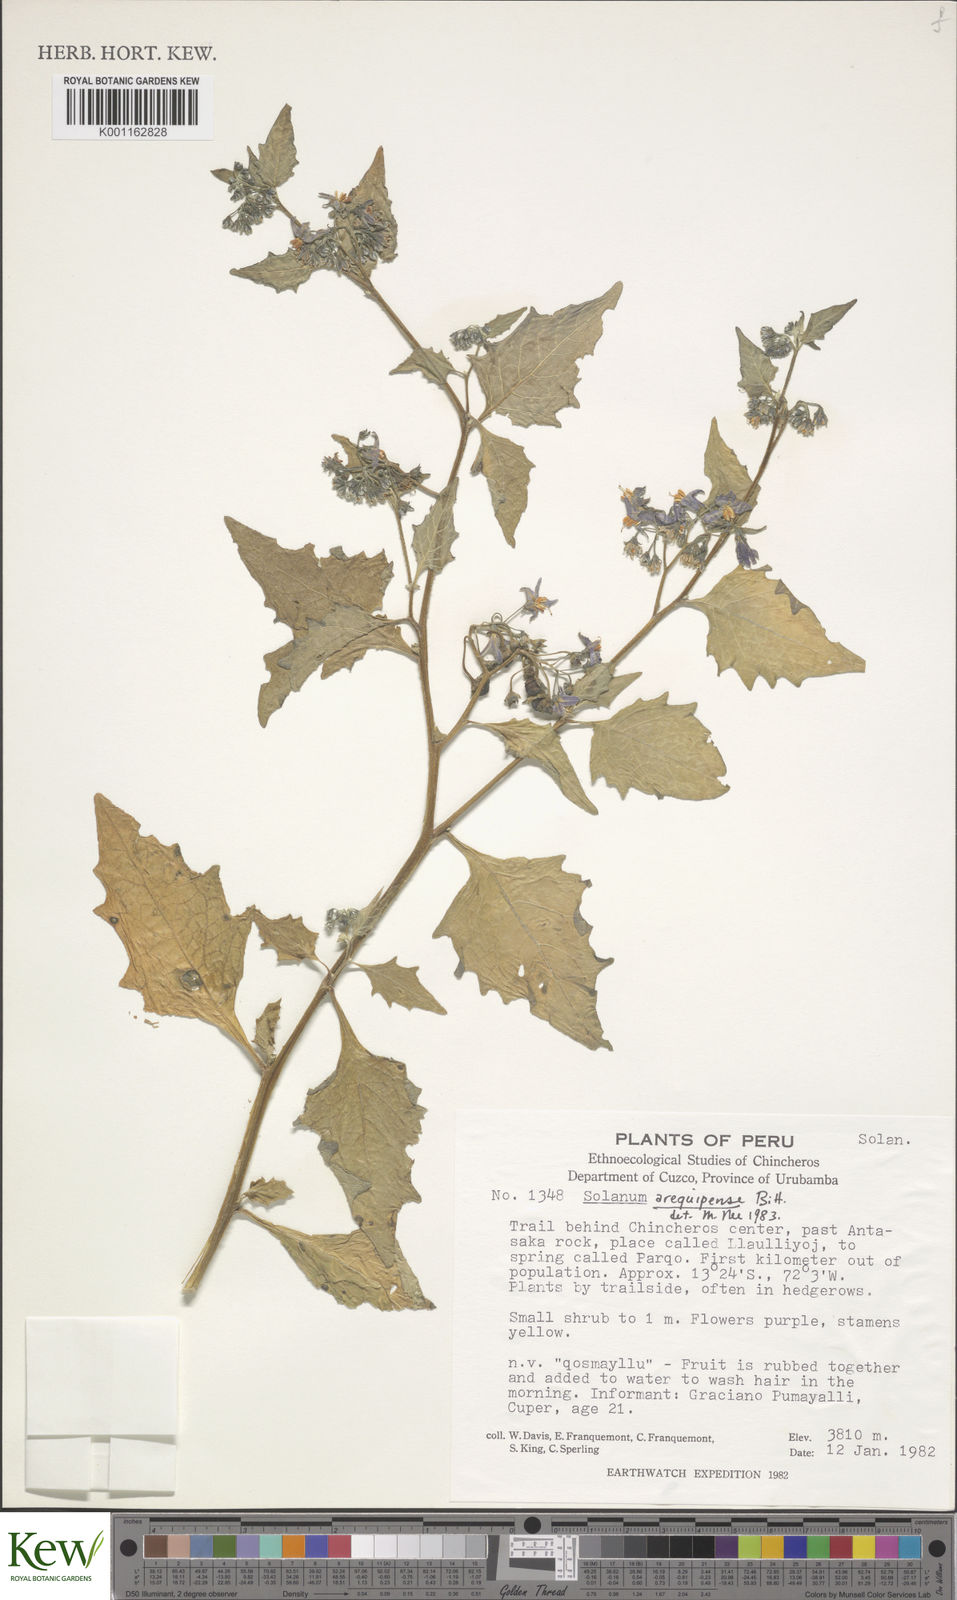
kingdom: Plantae
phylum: Tracheophyta
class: Magnoliopsida
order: Solanales
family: Solanaceae
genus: Solanum
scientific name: Solanum furcatum
